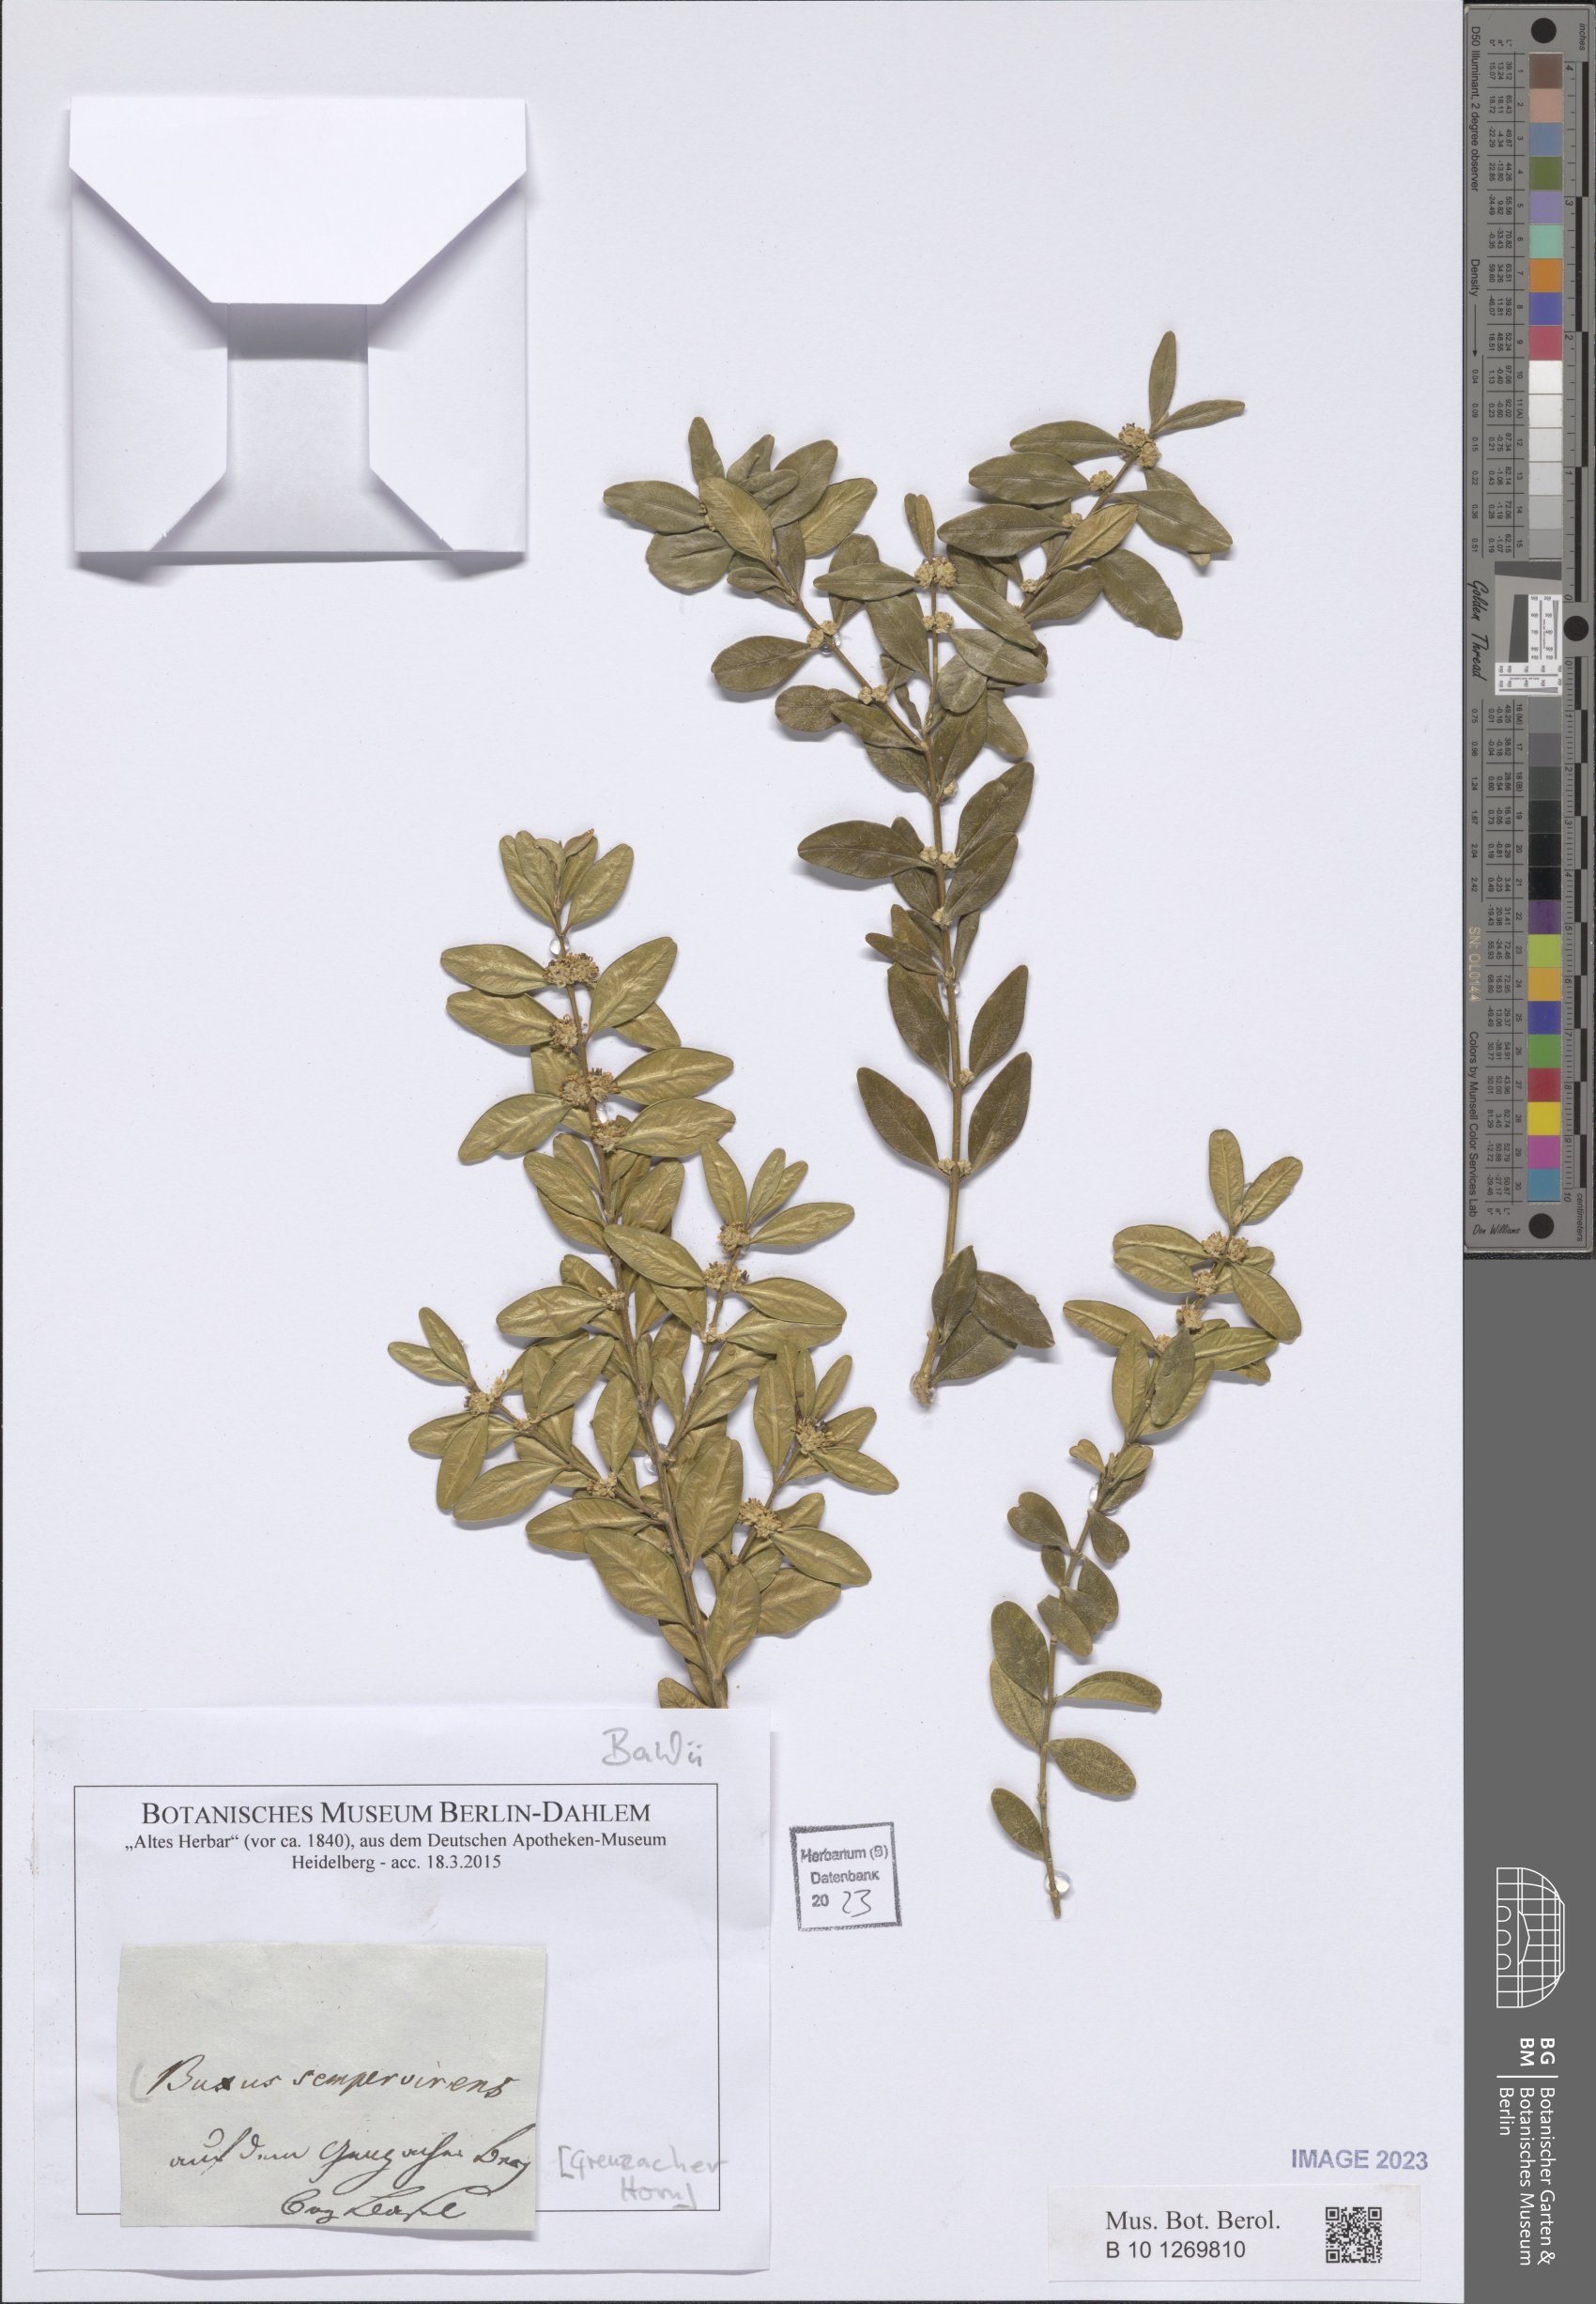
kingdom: Plantae
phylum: Tracheophyta
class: Magnoliopsida
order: Buxales
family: Buxaceae
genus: Buxus
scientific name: Buxus sempervirens
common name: Box
